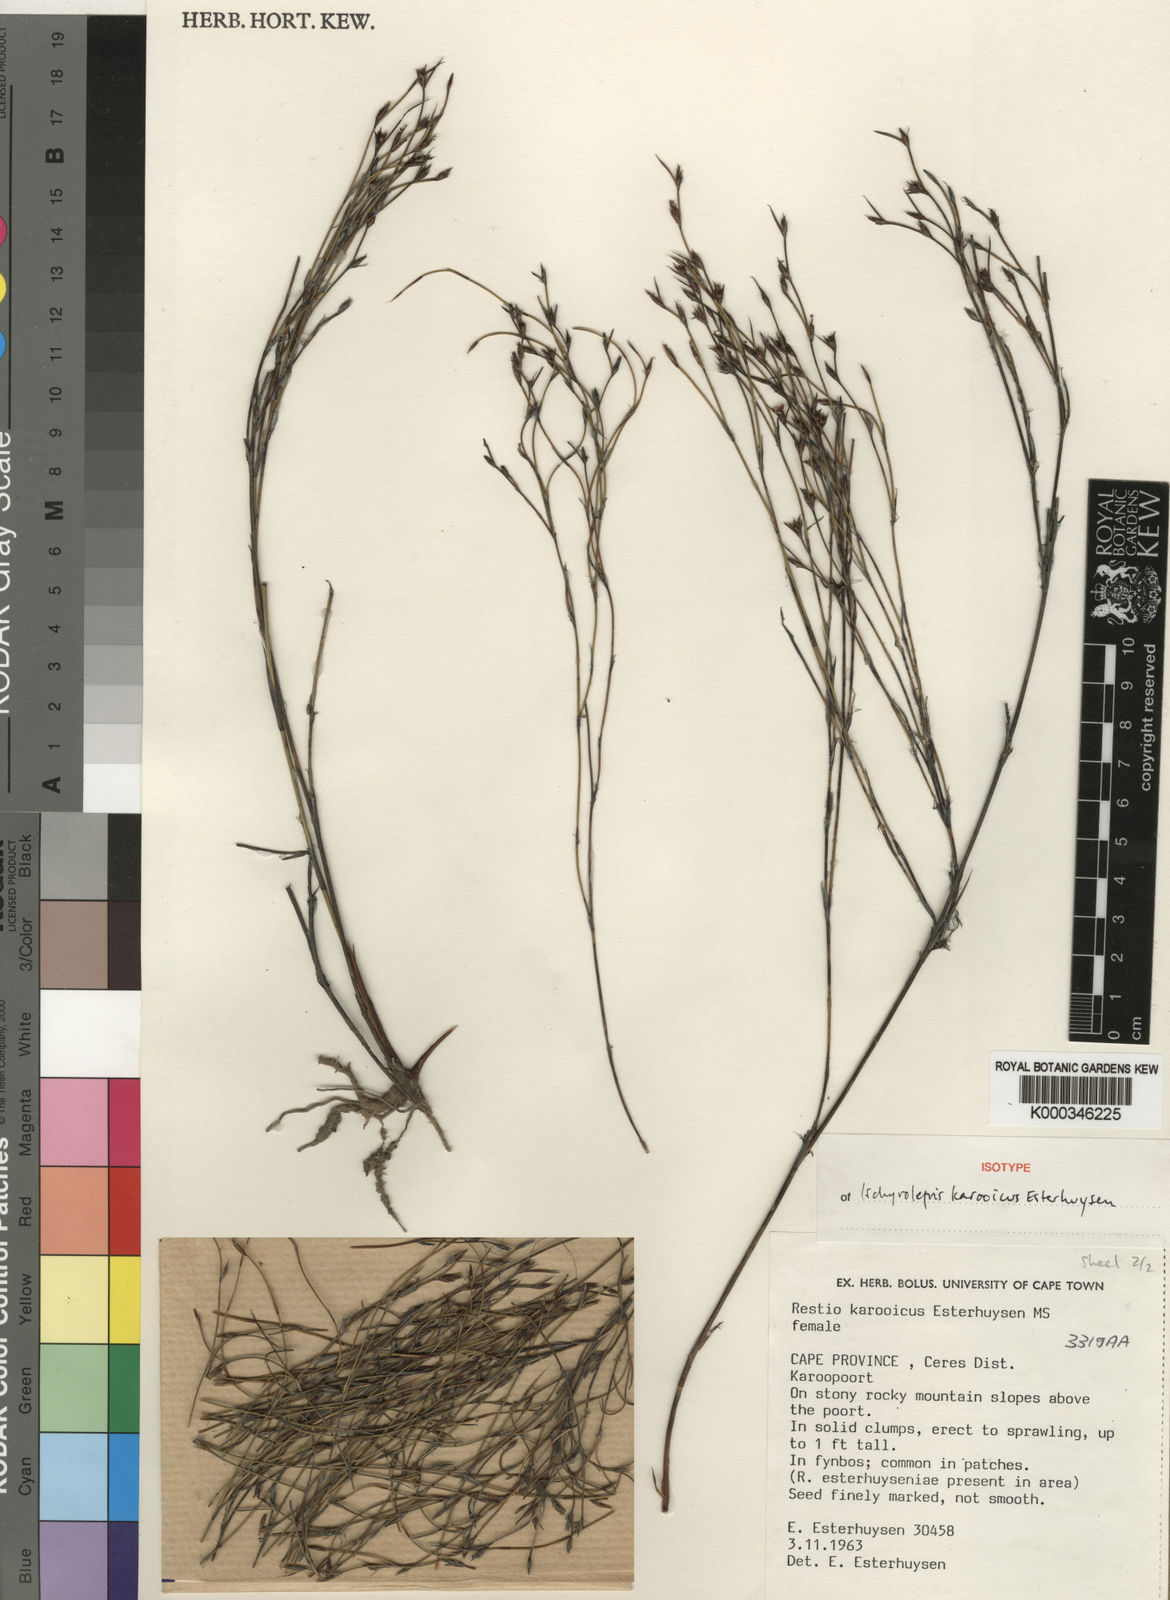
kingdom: Plantae
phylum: Tracheophyta
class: Liliopsida
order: Poales
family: Restionaceae
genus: Restio
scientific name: Restio karooicus
